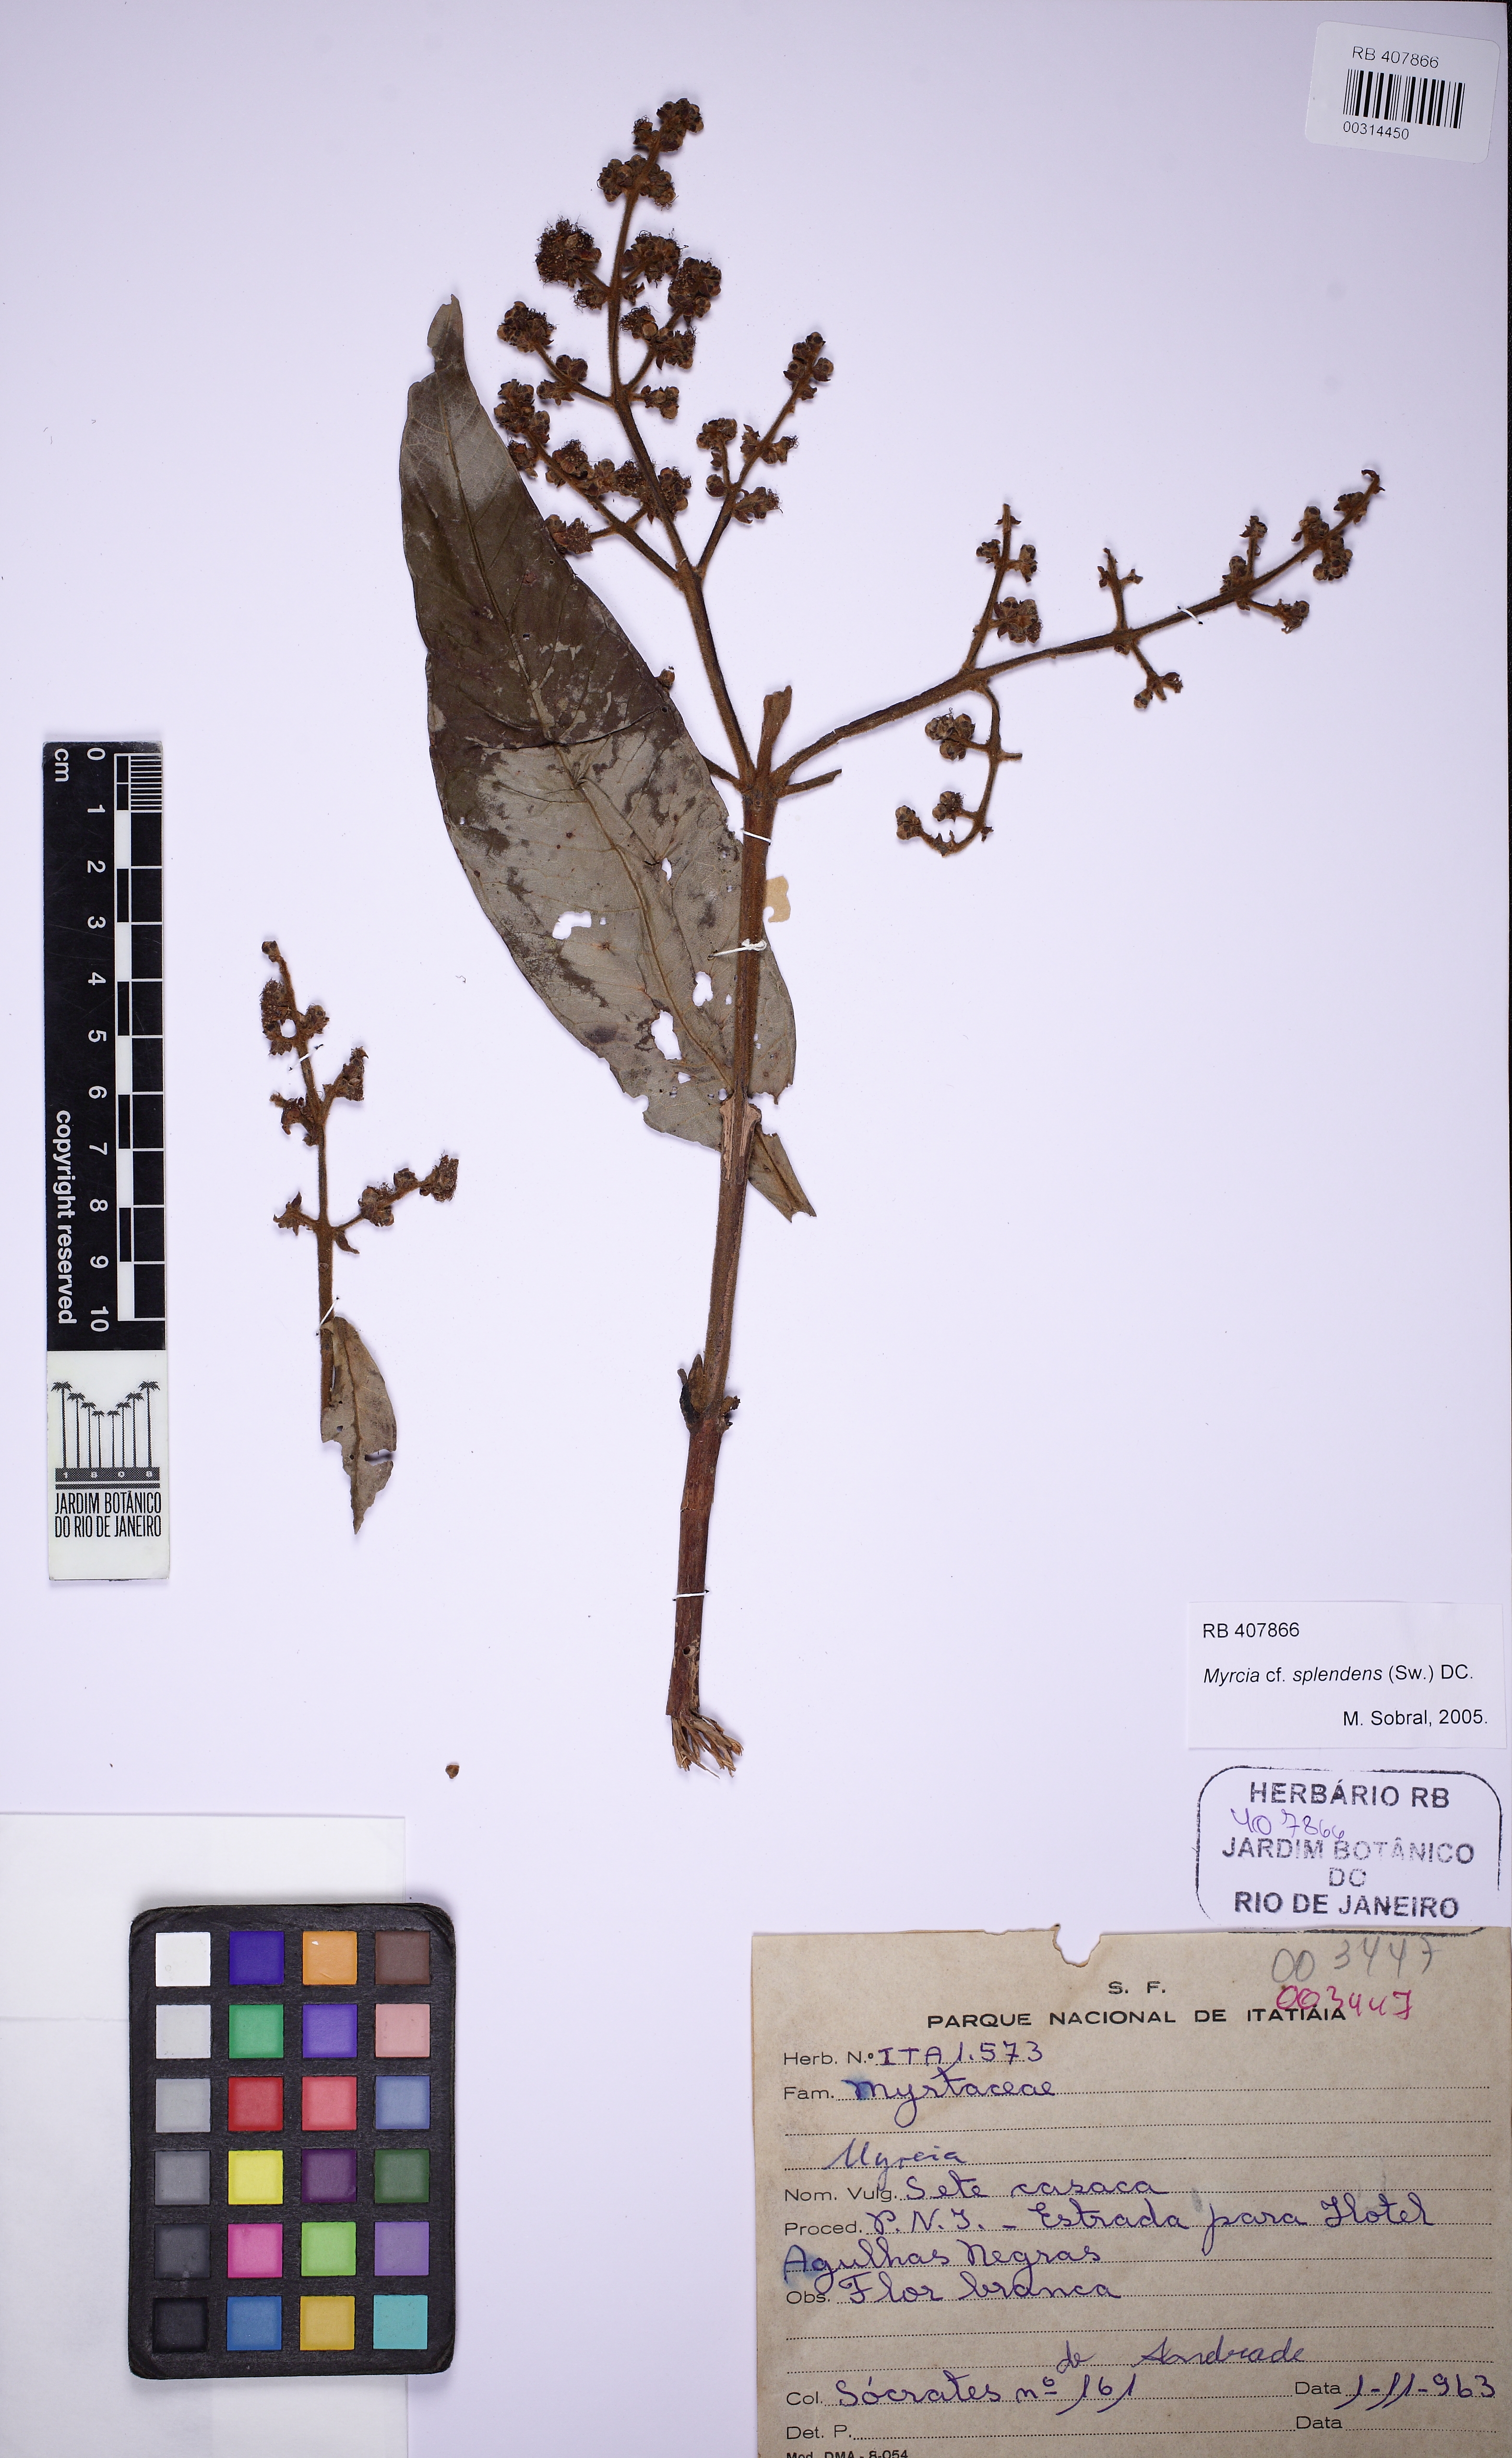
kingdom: Plantae
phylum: Tracheophyta
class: Magnoliopsida
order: Myrtales
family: Myrtaceae
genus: Myrcia
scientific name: Myrcia splendens
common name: Surinam cherry
